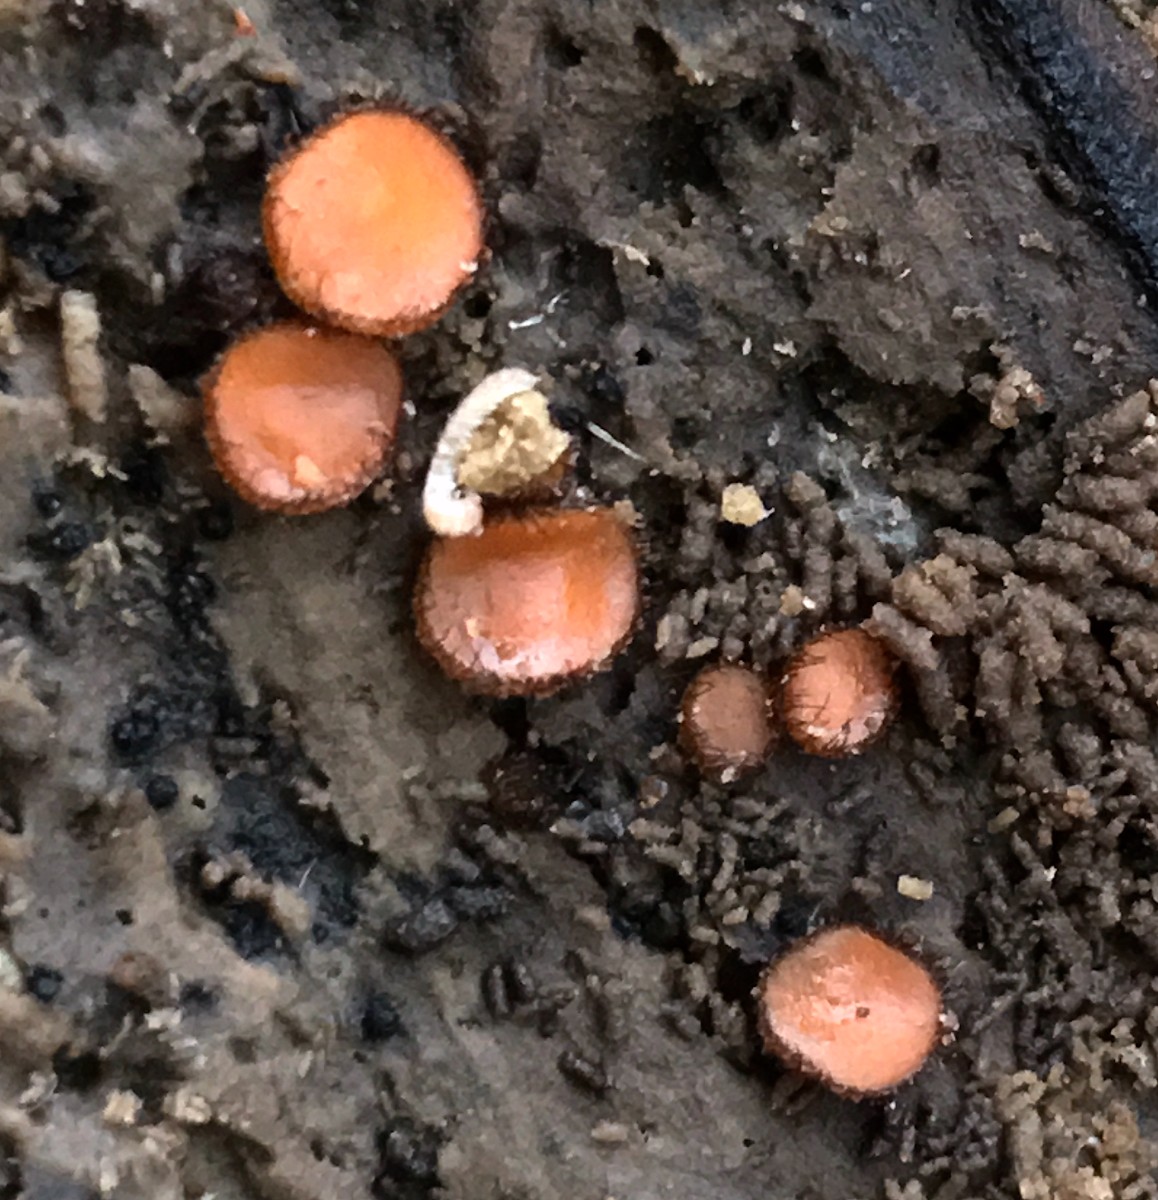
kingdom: Fungi
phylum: Ascomycota
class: Pezizomycetes
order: Pezizales
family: Pyronemataceae
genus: Scutellinia
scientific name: Scutellinia
